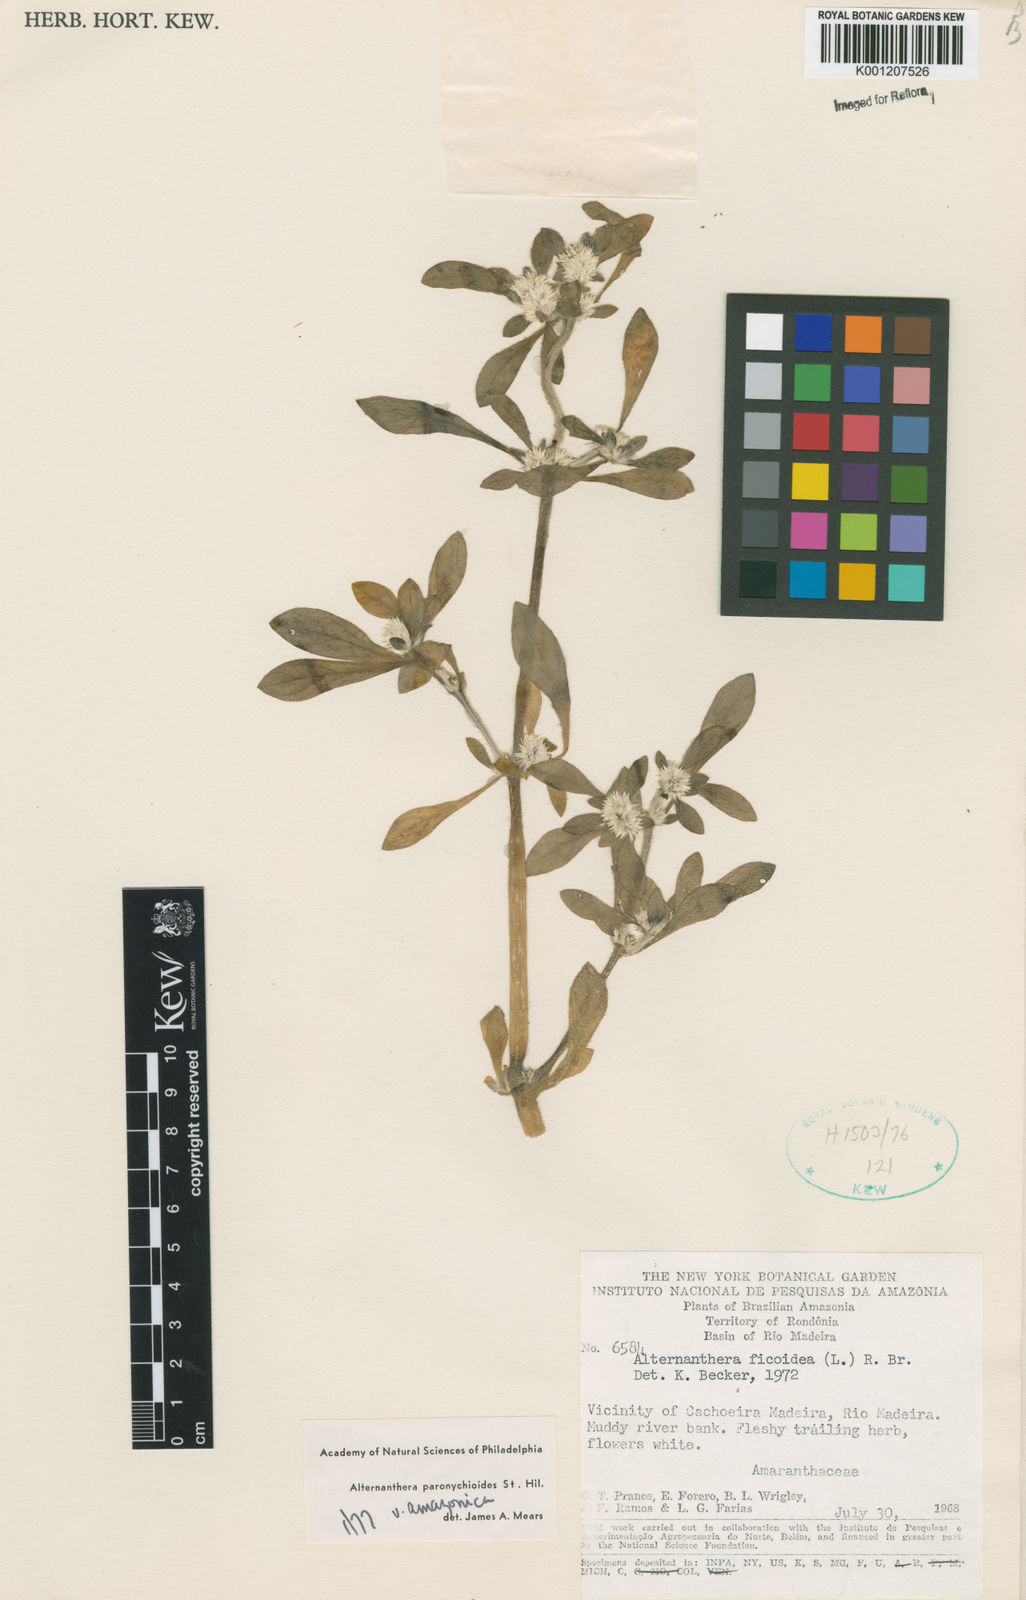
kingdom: Plantae
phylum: Tracheophyta
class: Magnoliopsida
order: Caryophyllales
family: Amaranthaceae
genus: Alternanthera
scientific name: Alternanthera paronychioides
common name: Smooth joyweed
